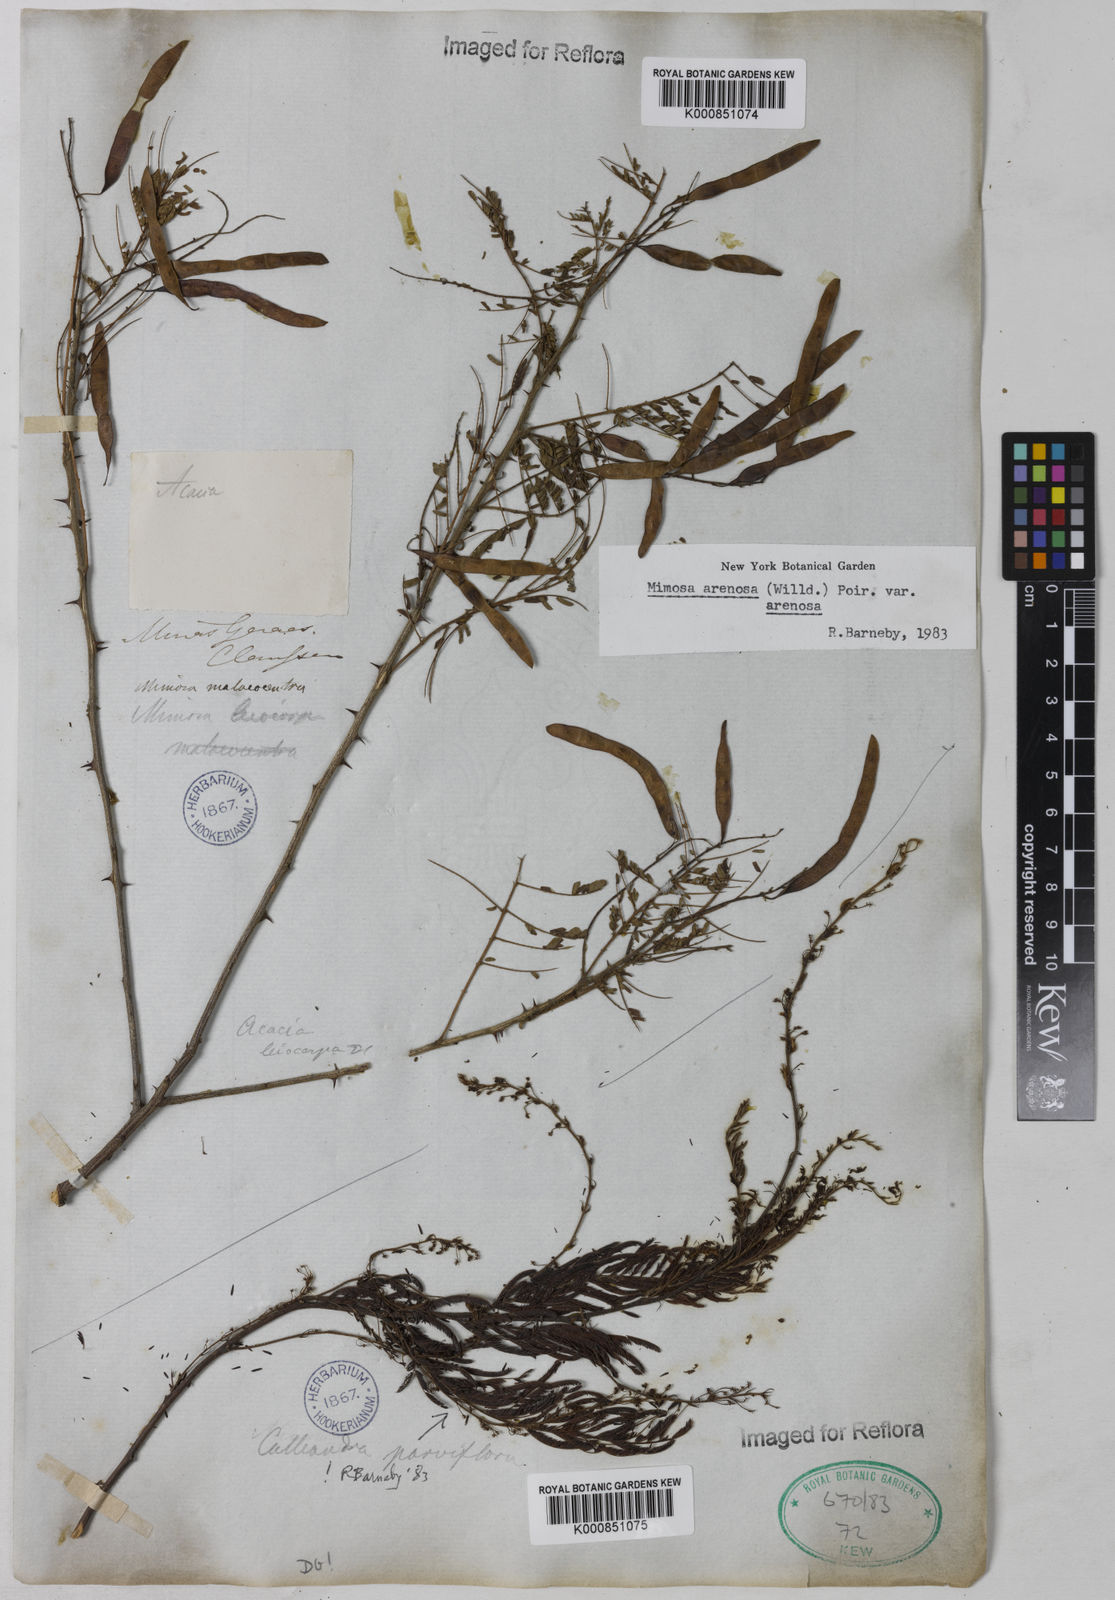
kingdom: Plantae
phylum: Tracheophyta
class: Magnoliopsida
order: Fabales
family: Fabaceae
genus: Mimosa
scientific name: Mimosa arenosa
